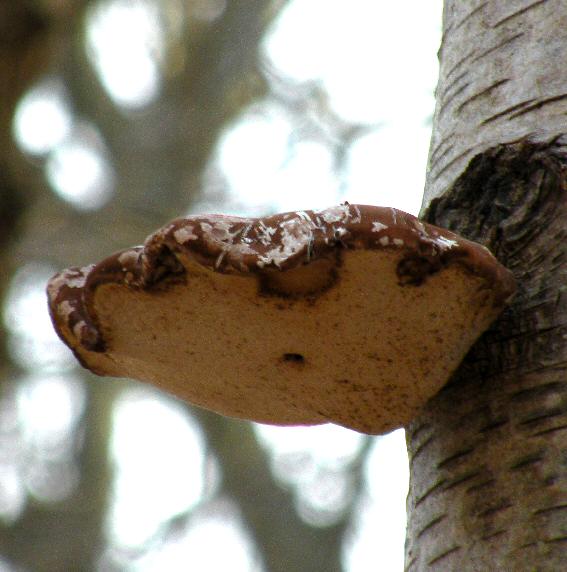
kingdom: Fungi
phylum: Basidiomycota
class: Agaricomycetes
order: Polyporales
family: Fomitopsidaceae
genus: Fomitopsis
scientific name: Fomitopsis betulina
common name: birkeporesvamp
